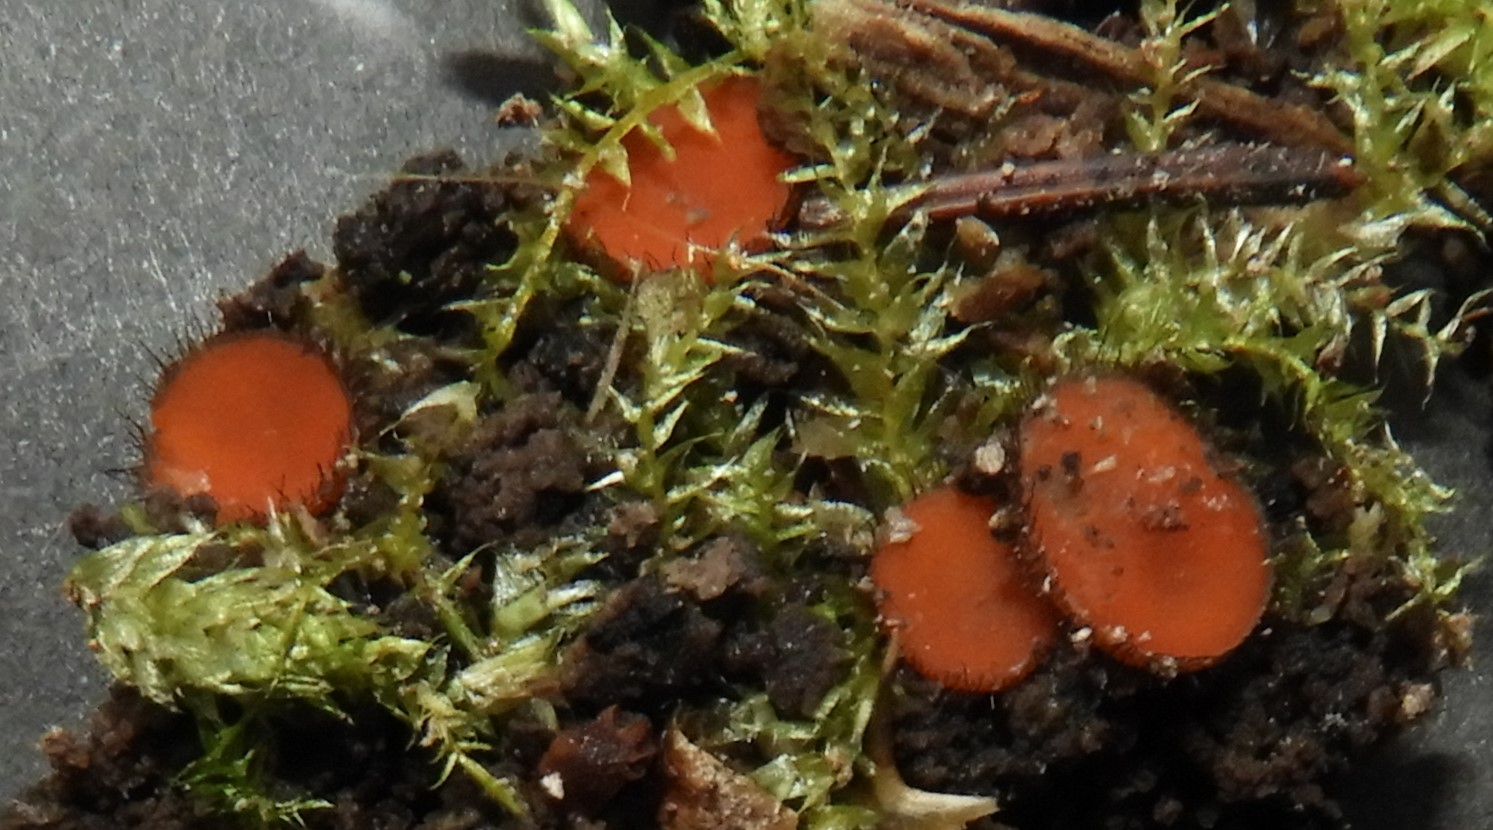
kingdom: Fungi
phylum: Ascomycota
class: Pezizomycetes
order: Pezizales
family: Pyronemataceae
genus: Scutellinia
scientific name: Scutellinia scutellata
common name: frynset skjoldbæger
